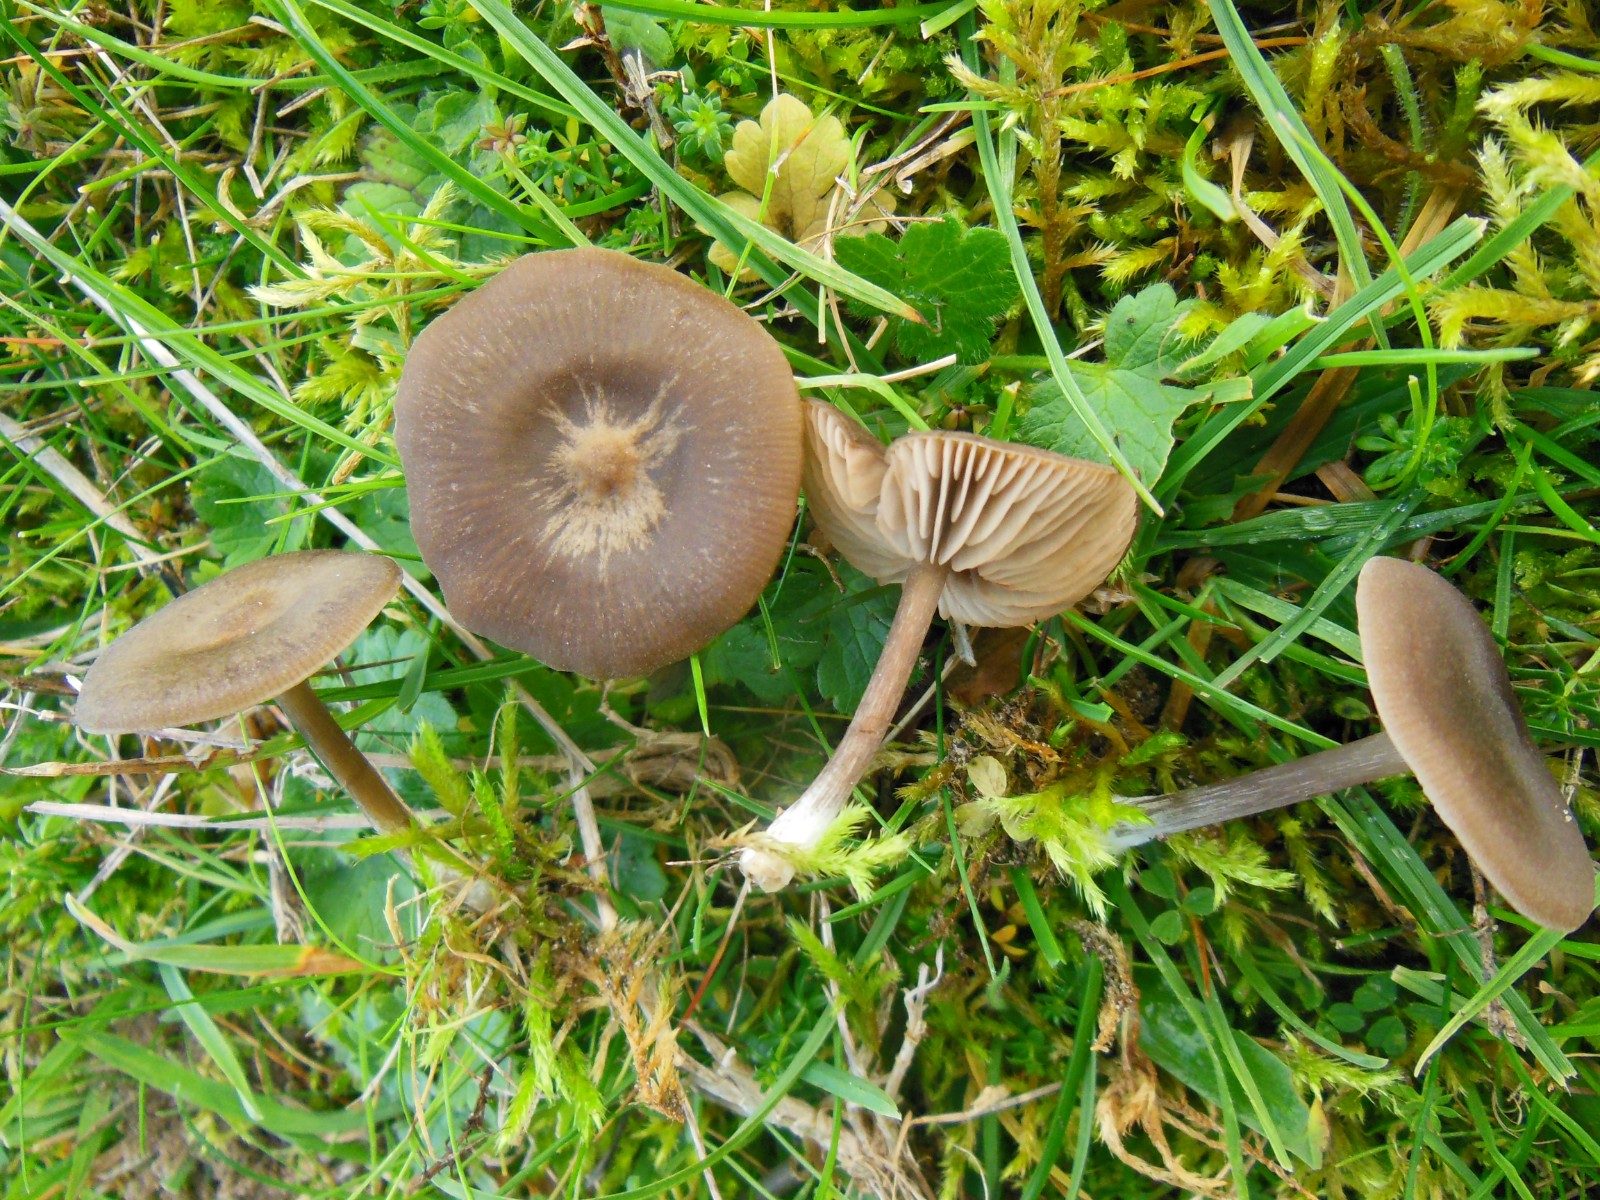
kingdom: Fungi
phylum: Basidiomycota
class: Agaricomycetes
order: Agaricales
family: Entolomataceae
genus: Entoloma
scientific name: Entoloma sericeum
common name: silkeglinsende rødblad
